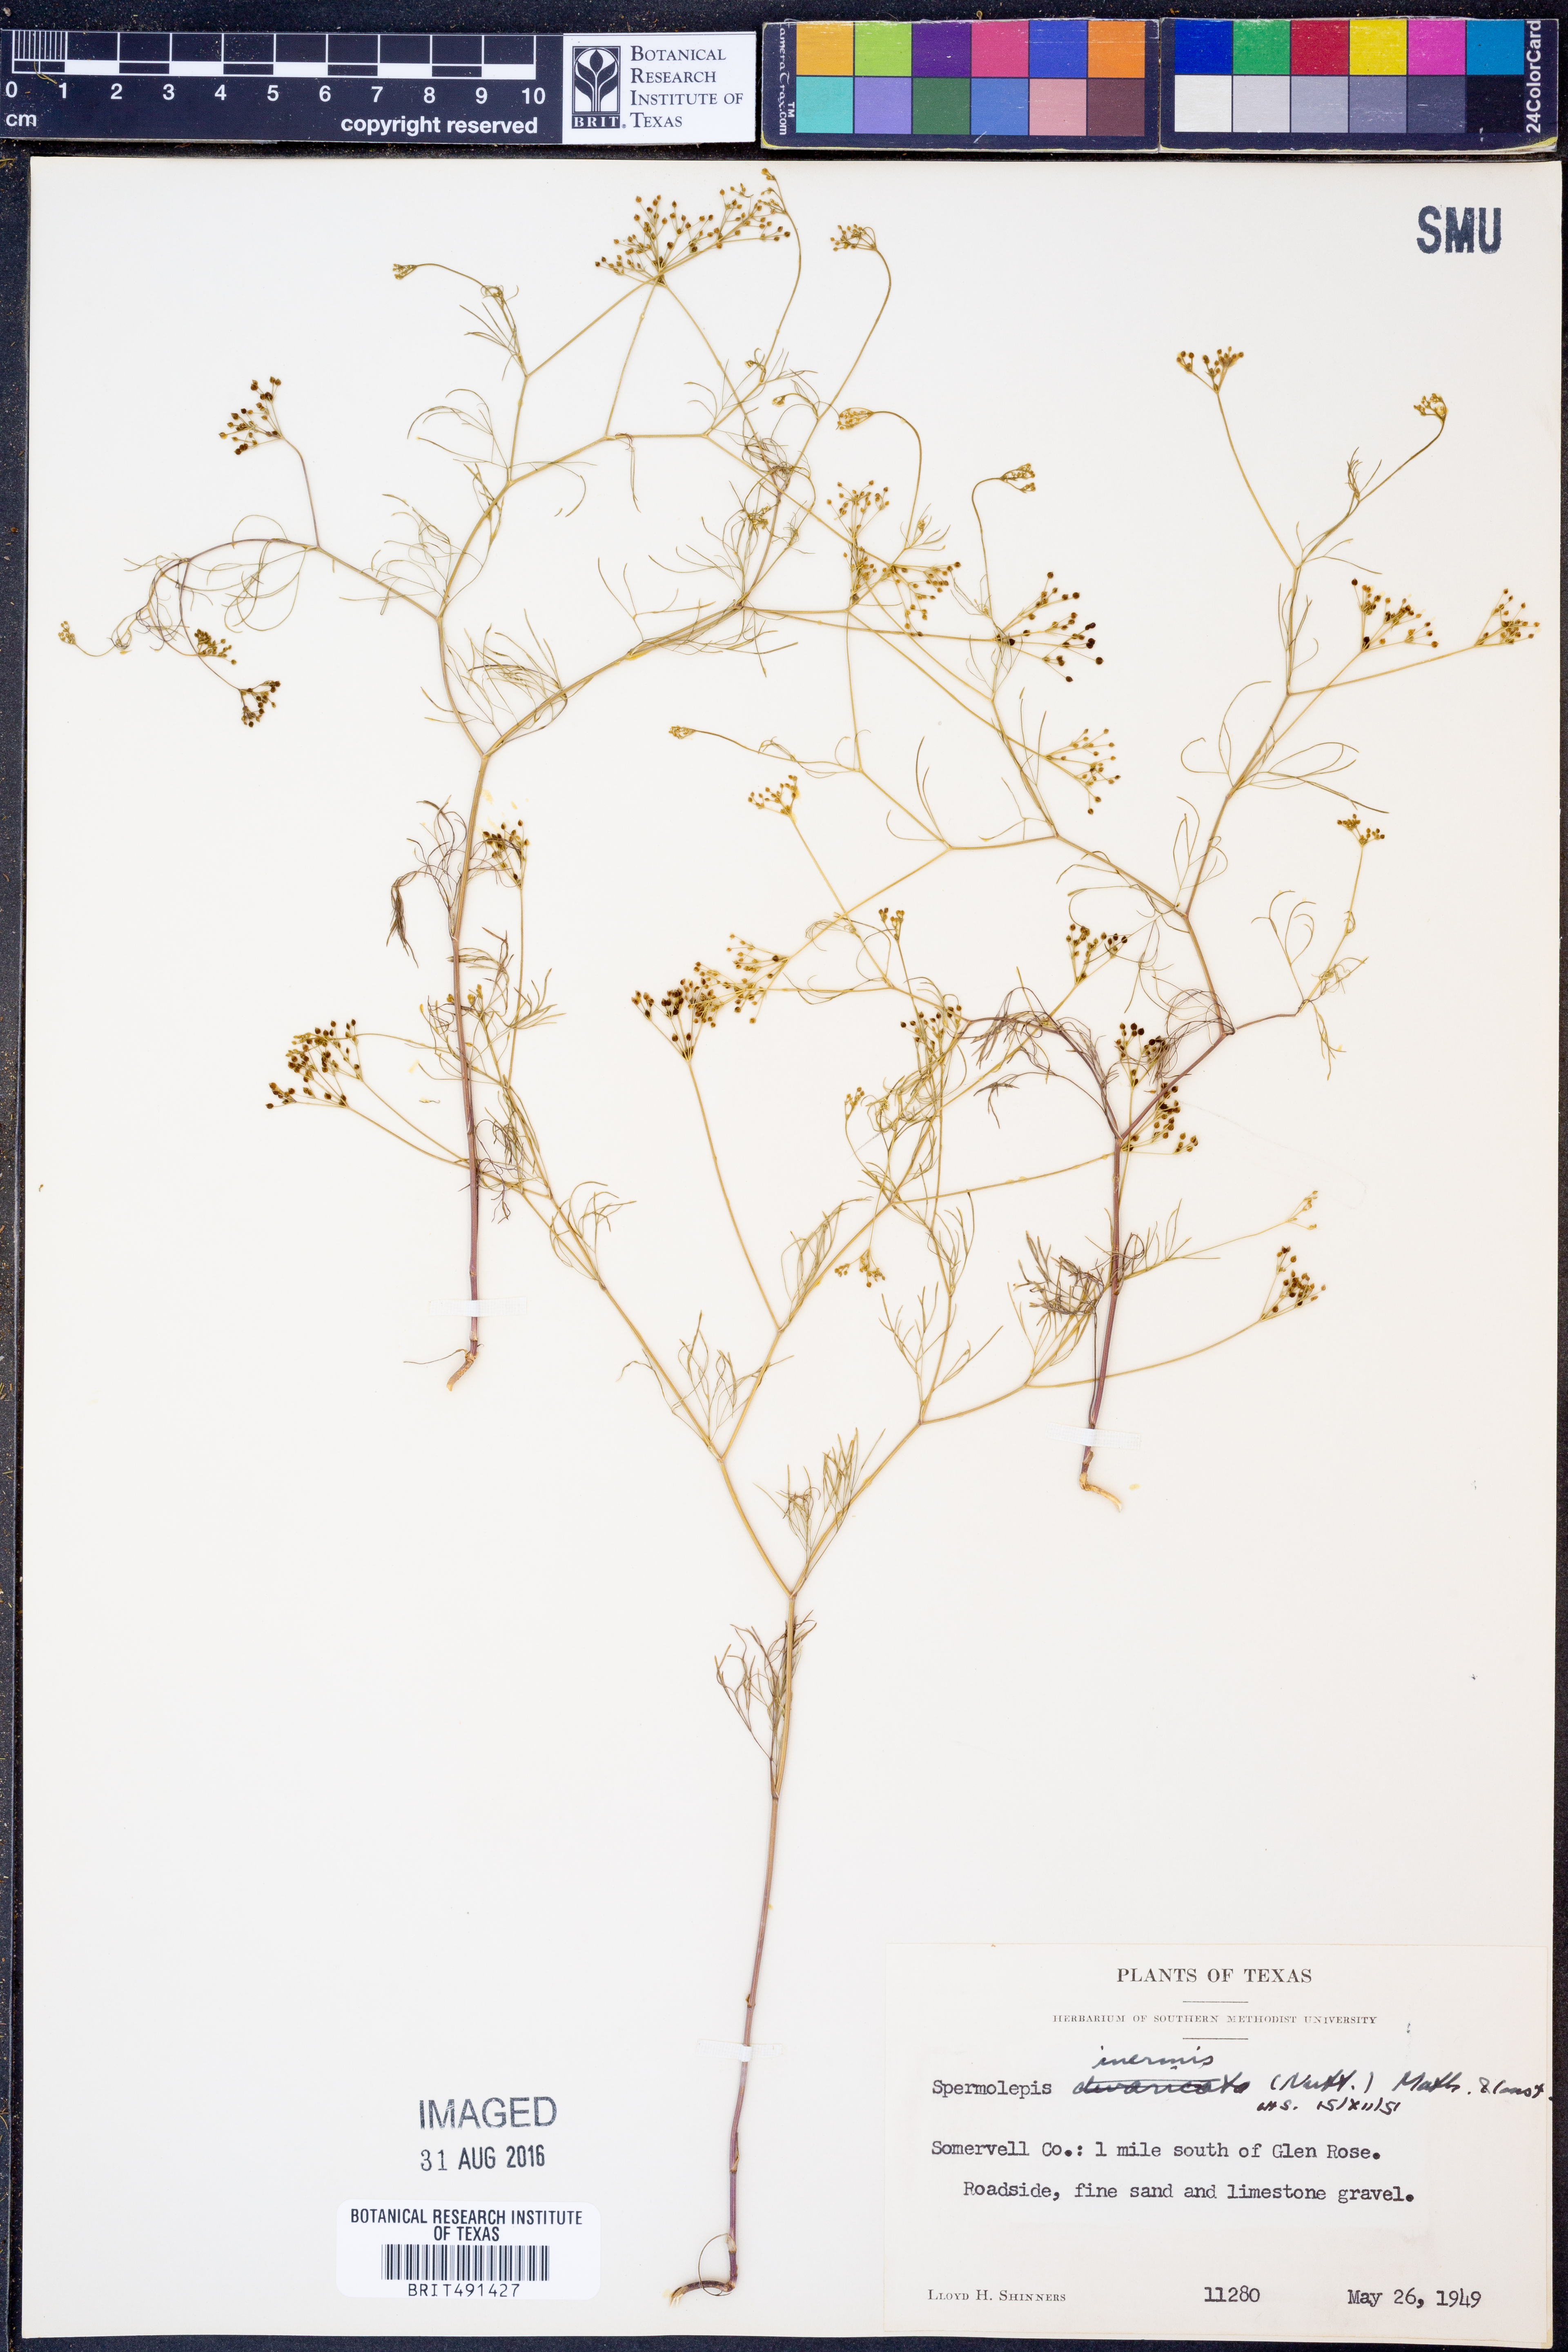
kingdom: Plantae
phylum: Tracheophyta
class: Magnoliopsida
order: Apiales
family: Apiaceae
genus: Spermolepis
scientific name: Spermolepis inermis
